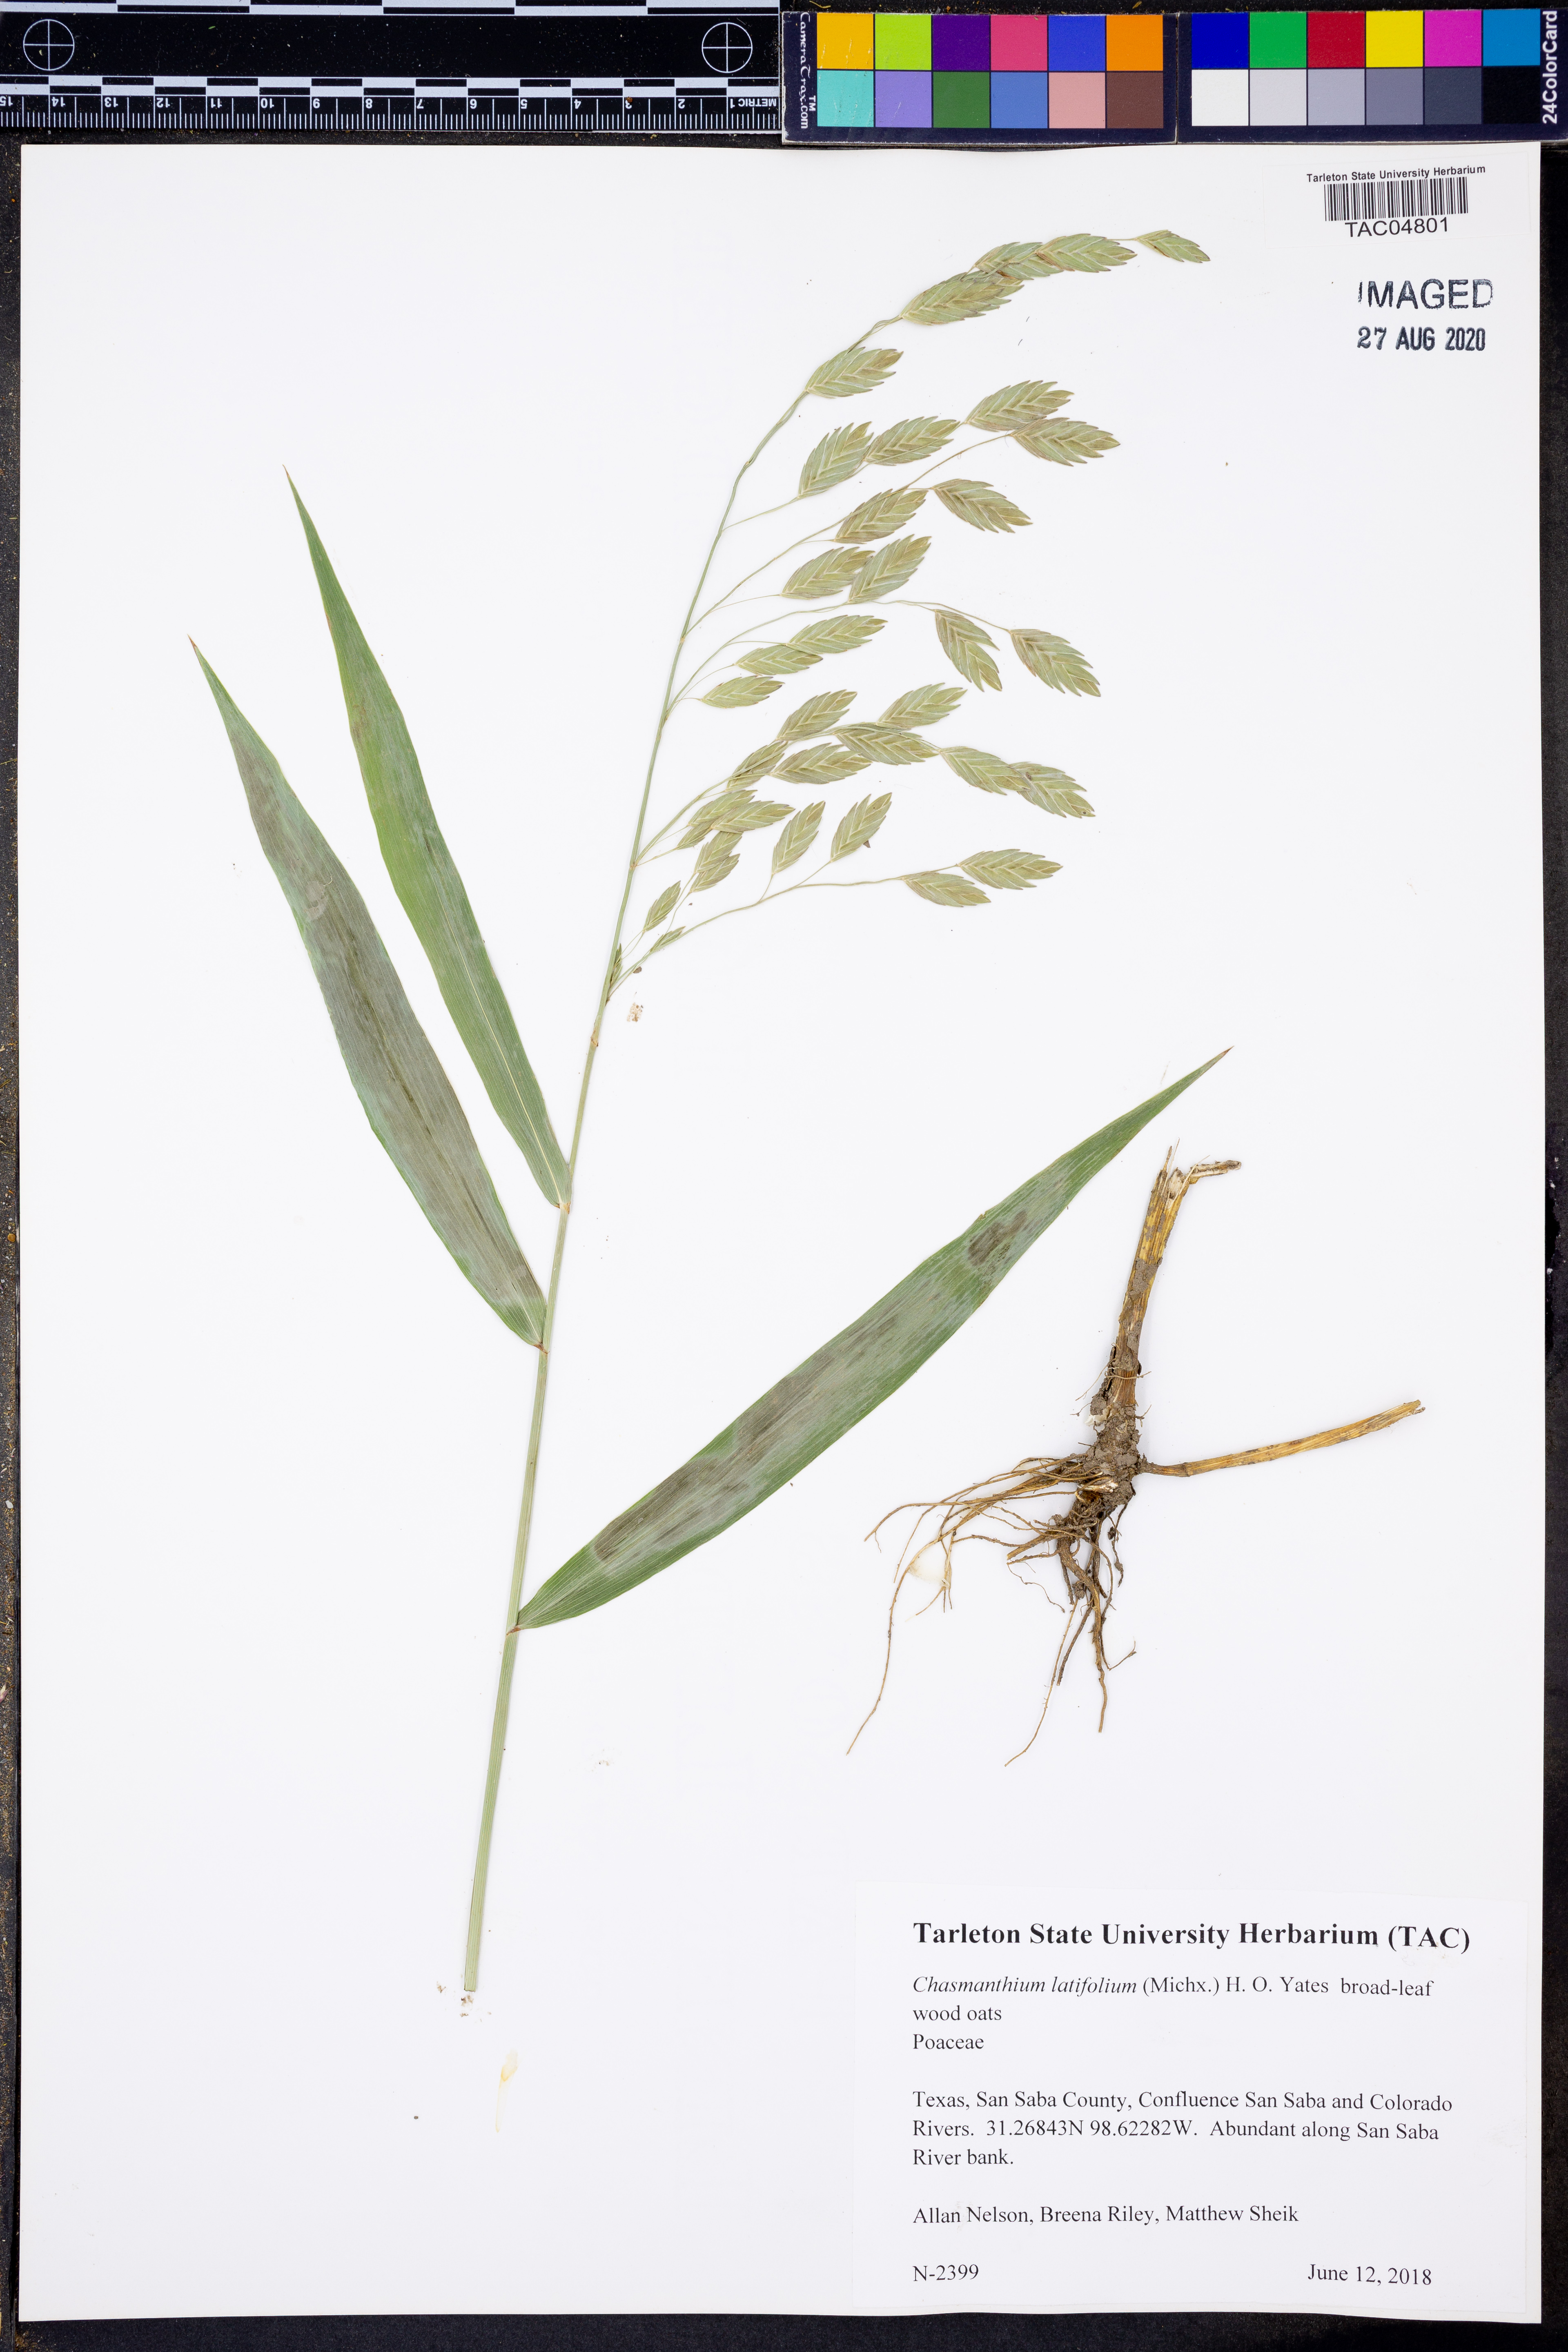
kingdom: Plantae
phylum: Tracheophyta
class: Liliopsida
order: Poales
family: Poaceae
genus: Chasmanthium
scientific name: Chasmanthium latifolium
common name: Broad-leaved chasmanthium
